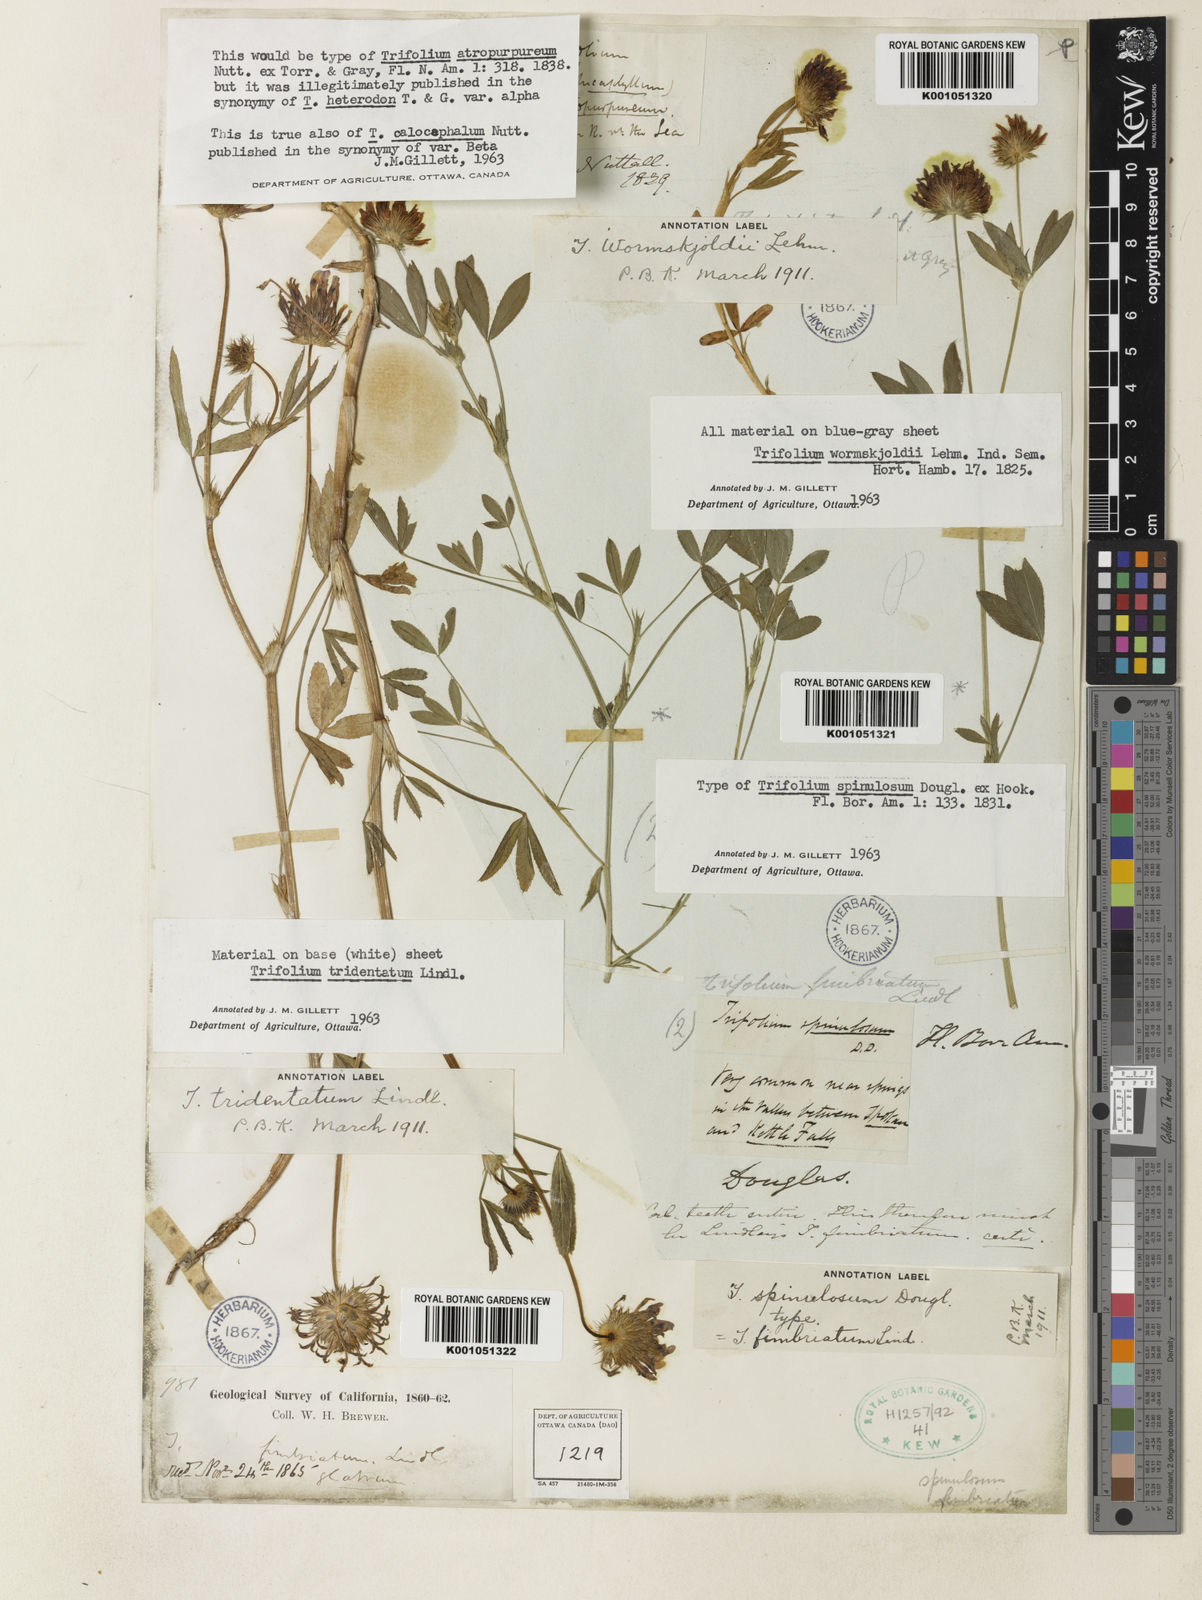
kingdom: Plantae
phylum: Tracheophyta
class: Magnoliopsida
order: Fabales
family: Fabaceae
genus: Trifolium
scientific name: Trifolium willdenovii
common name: Tomcat clover
